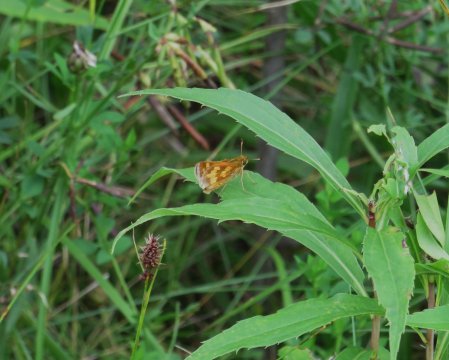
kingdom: Animalia
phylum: Arthropoda
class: Insecta
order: Lepidoptera
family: Hesperiidae
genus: Polites
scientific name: Polites coras
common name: Peck's Skipper
